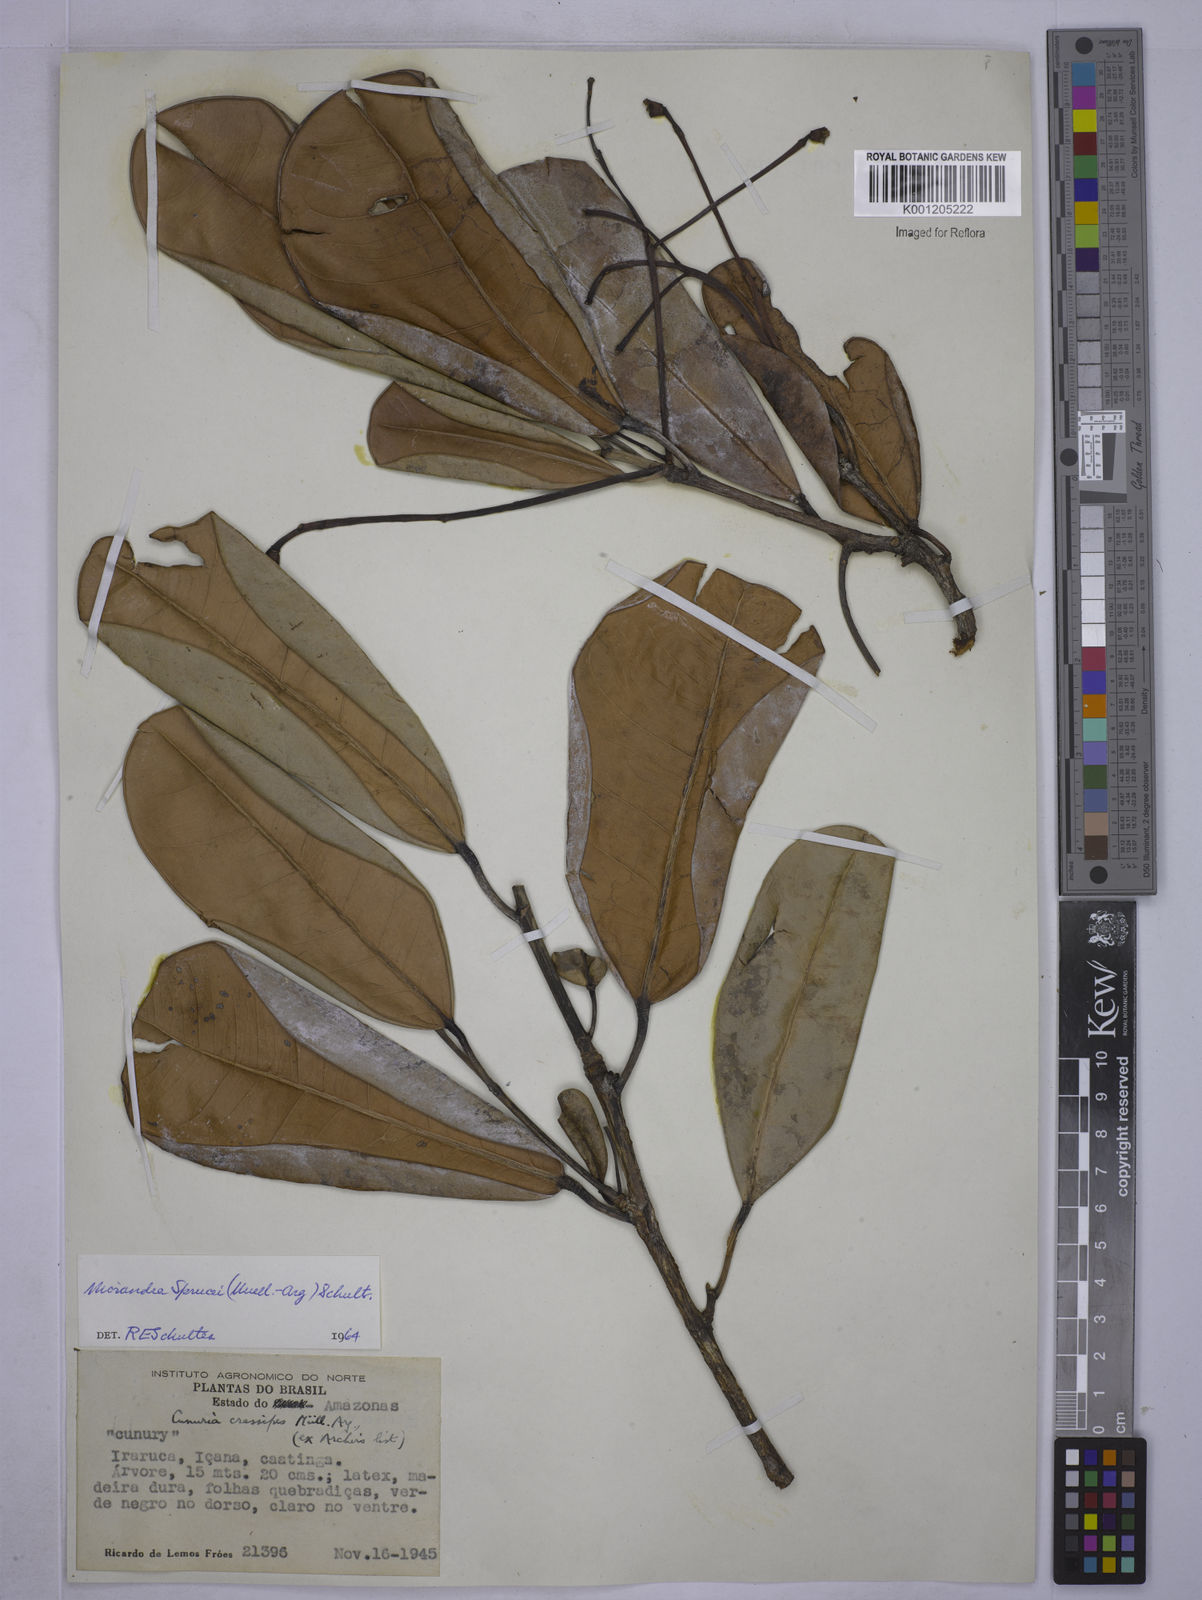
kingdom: Plantae
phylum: Tracheophyta
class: Magnoliopsida
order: Malpighiales
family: Euphorbiaceae
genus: Micrandra
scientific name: Micrandra
